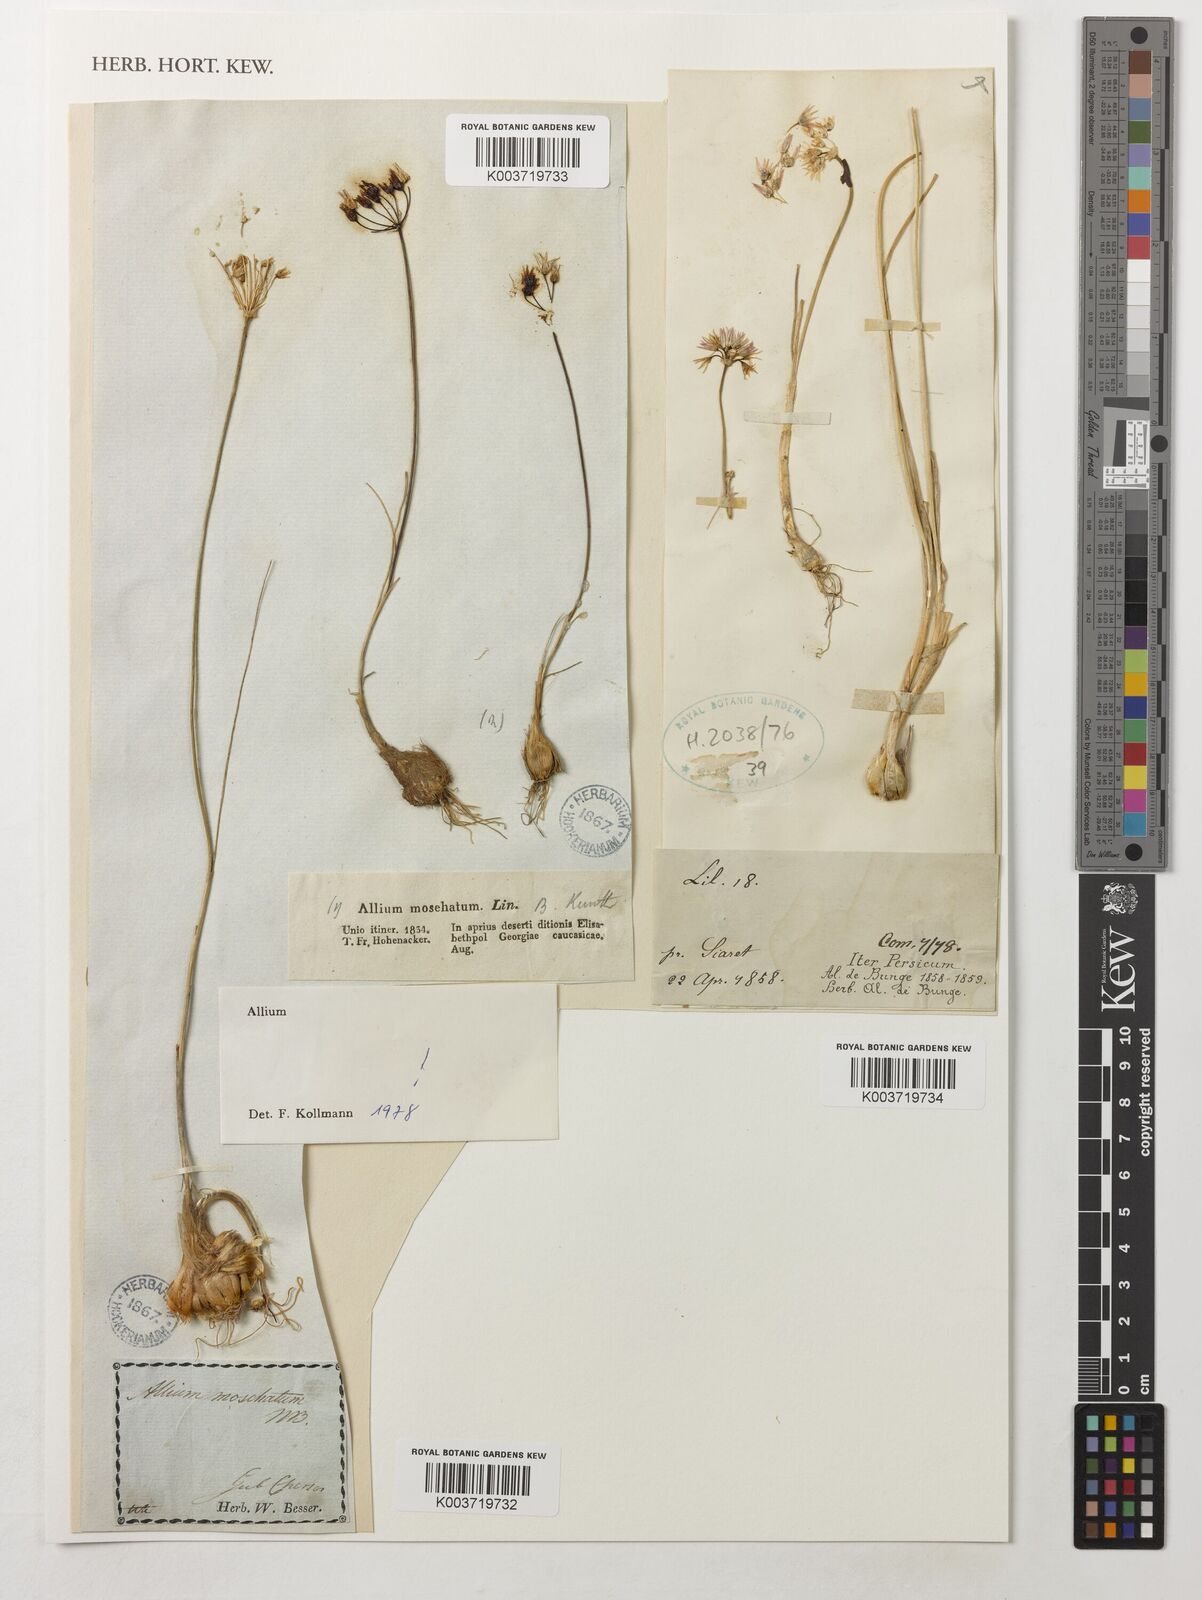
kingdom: Plantae
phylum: Tracheophyta
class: Liliopsida
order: Asparagales
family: Amaryllidaceae
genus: Allium
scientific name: Allium
